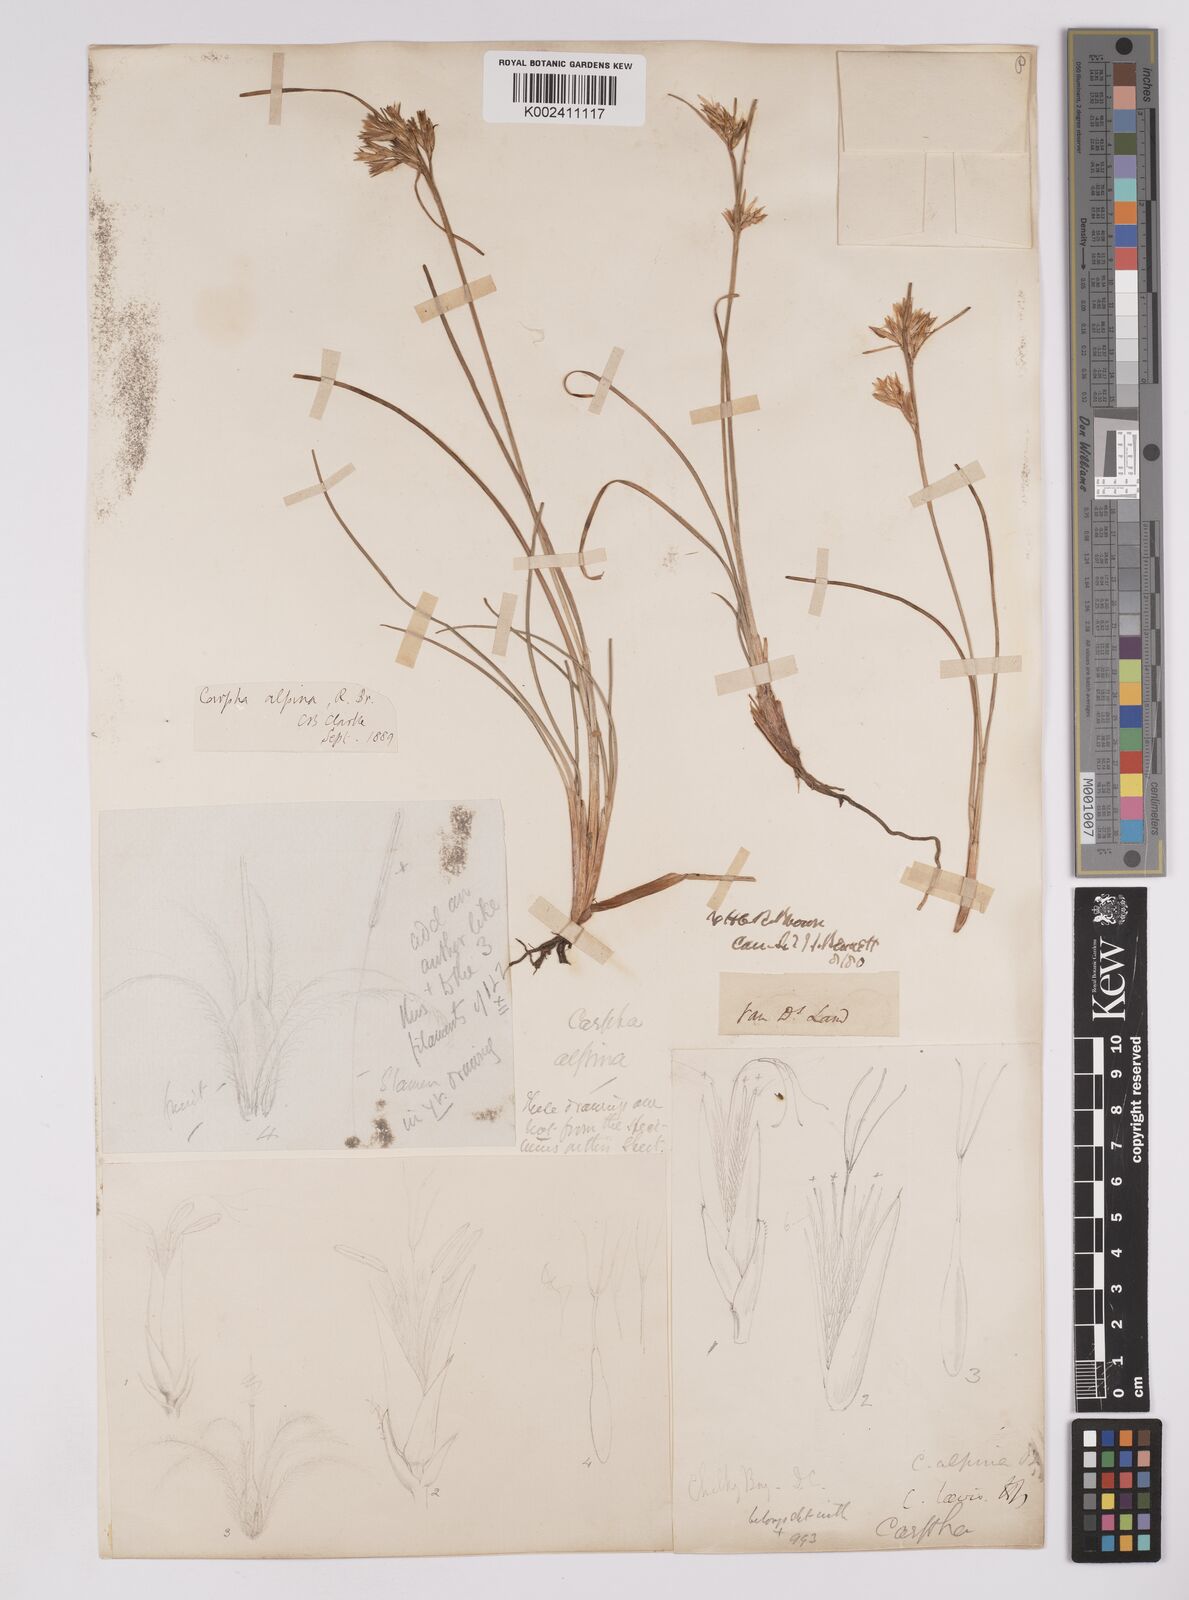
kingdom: Plantae
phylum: Tracheophyta
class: Liliopsida
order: Poales
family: Cyperaceae
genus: Carpha
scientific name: Carpha alpina
